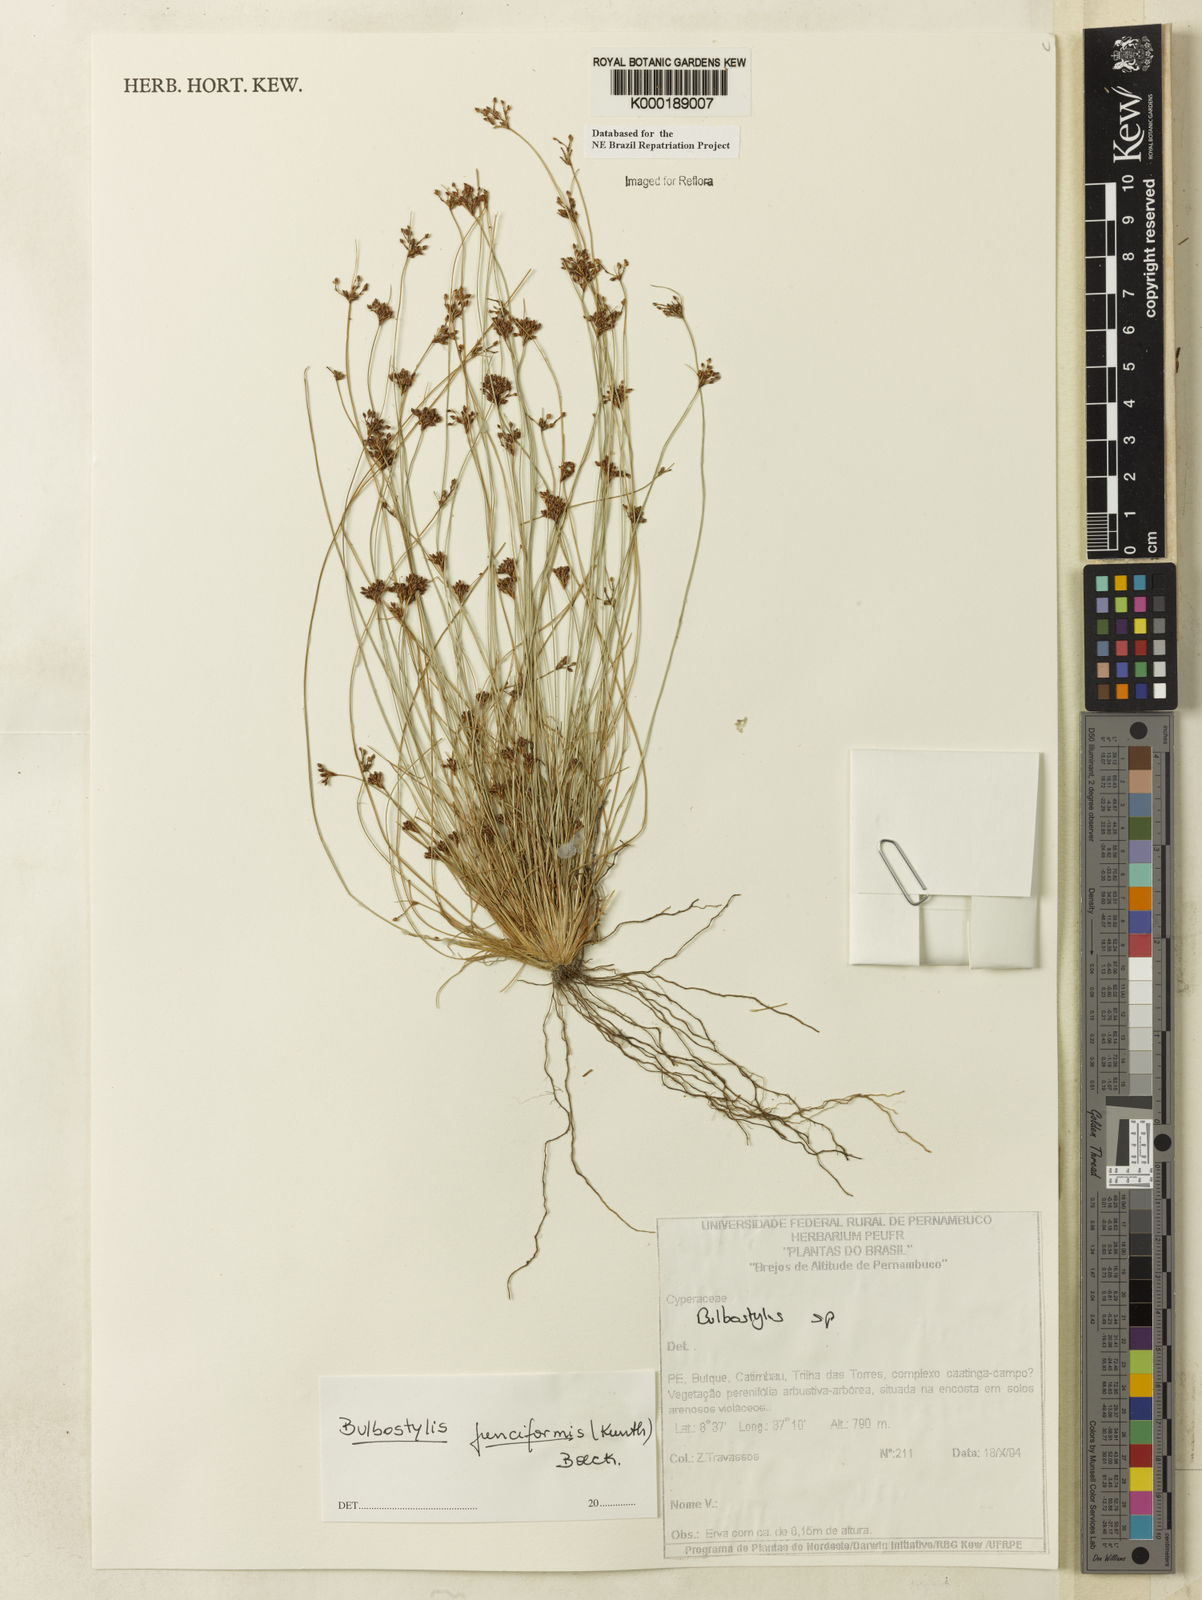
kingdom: Plantae
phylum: Tracheophyta
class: Liliopsida
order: Poales
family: Cyperaceae
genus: Bulbostylis
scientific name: Bulbostylis
